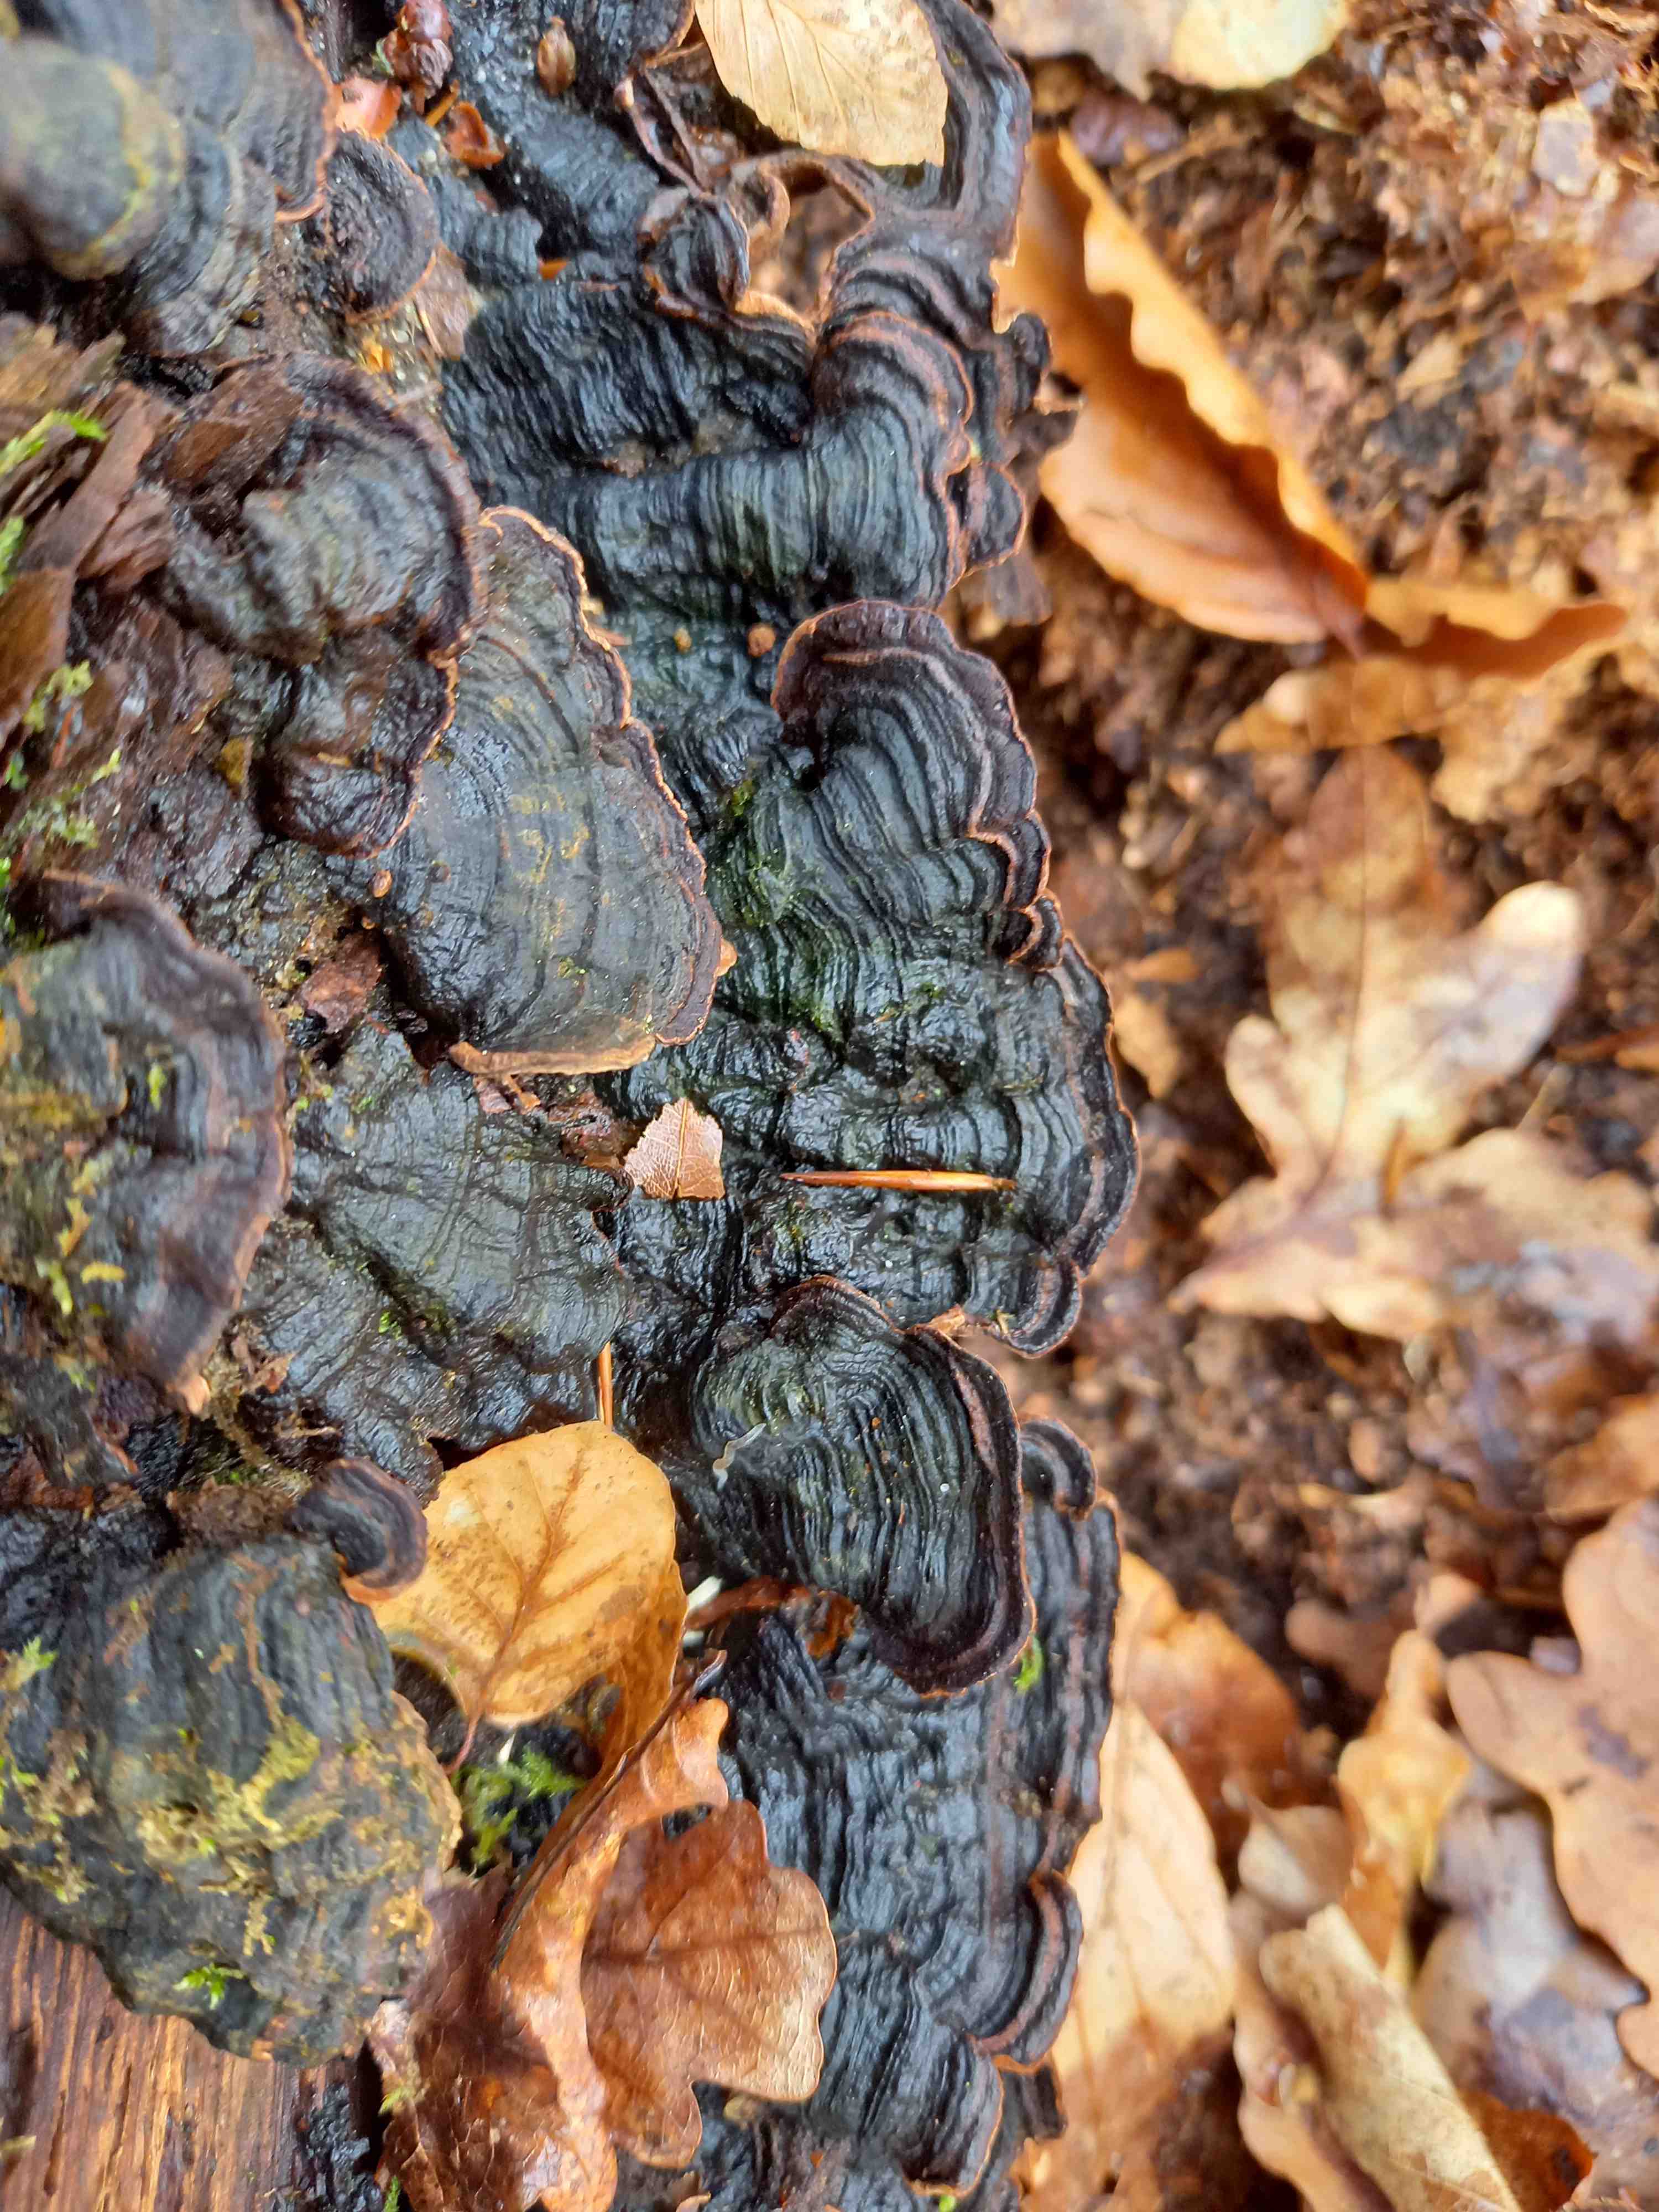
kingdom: Fungi
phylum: Basidiomycota
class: Agaricomycetes
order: Hymenochaetales
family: Hymenochaetaceae
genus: Hymenochaete
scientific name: Hymenochaete rubiginosa
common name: stiv ruslædersvamp
